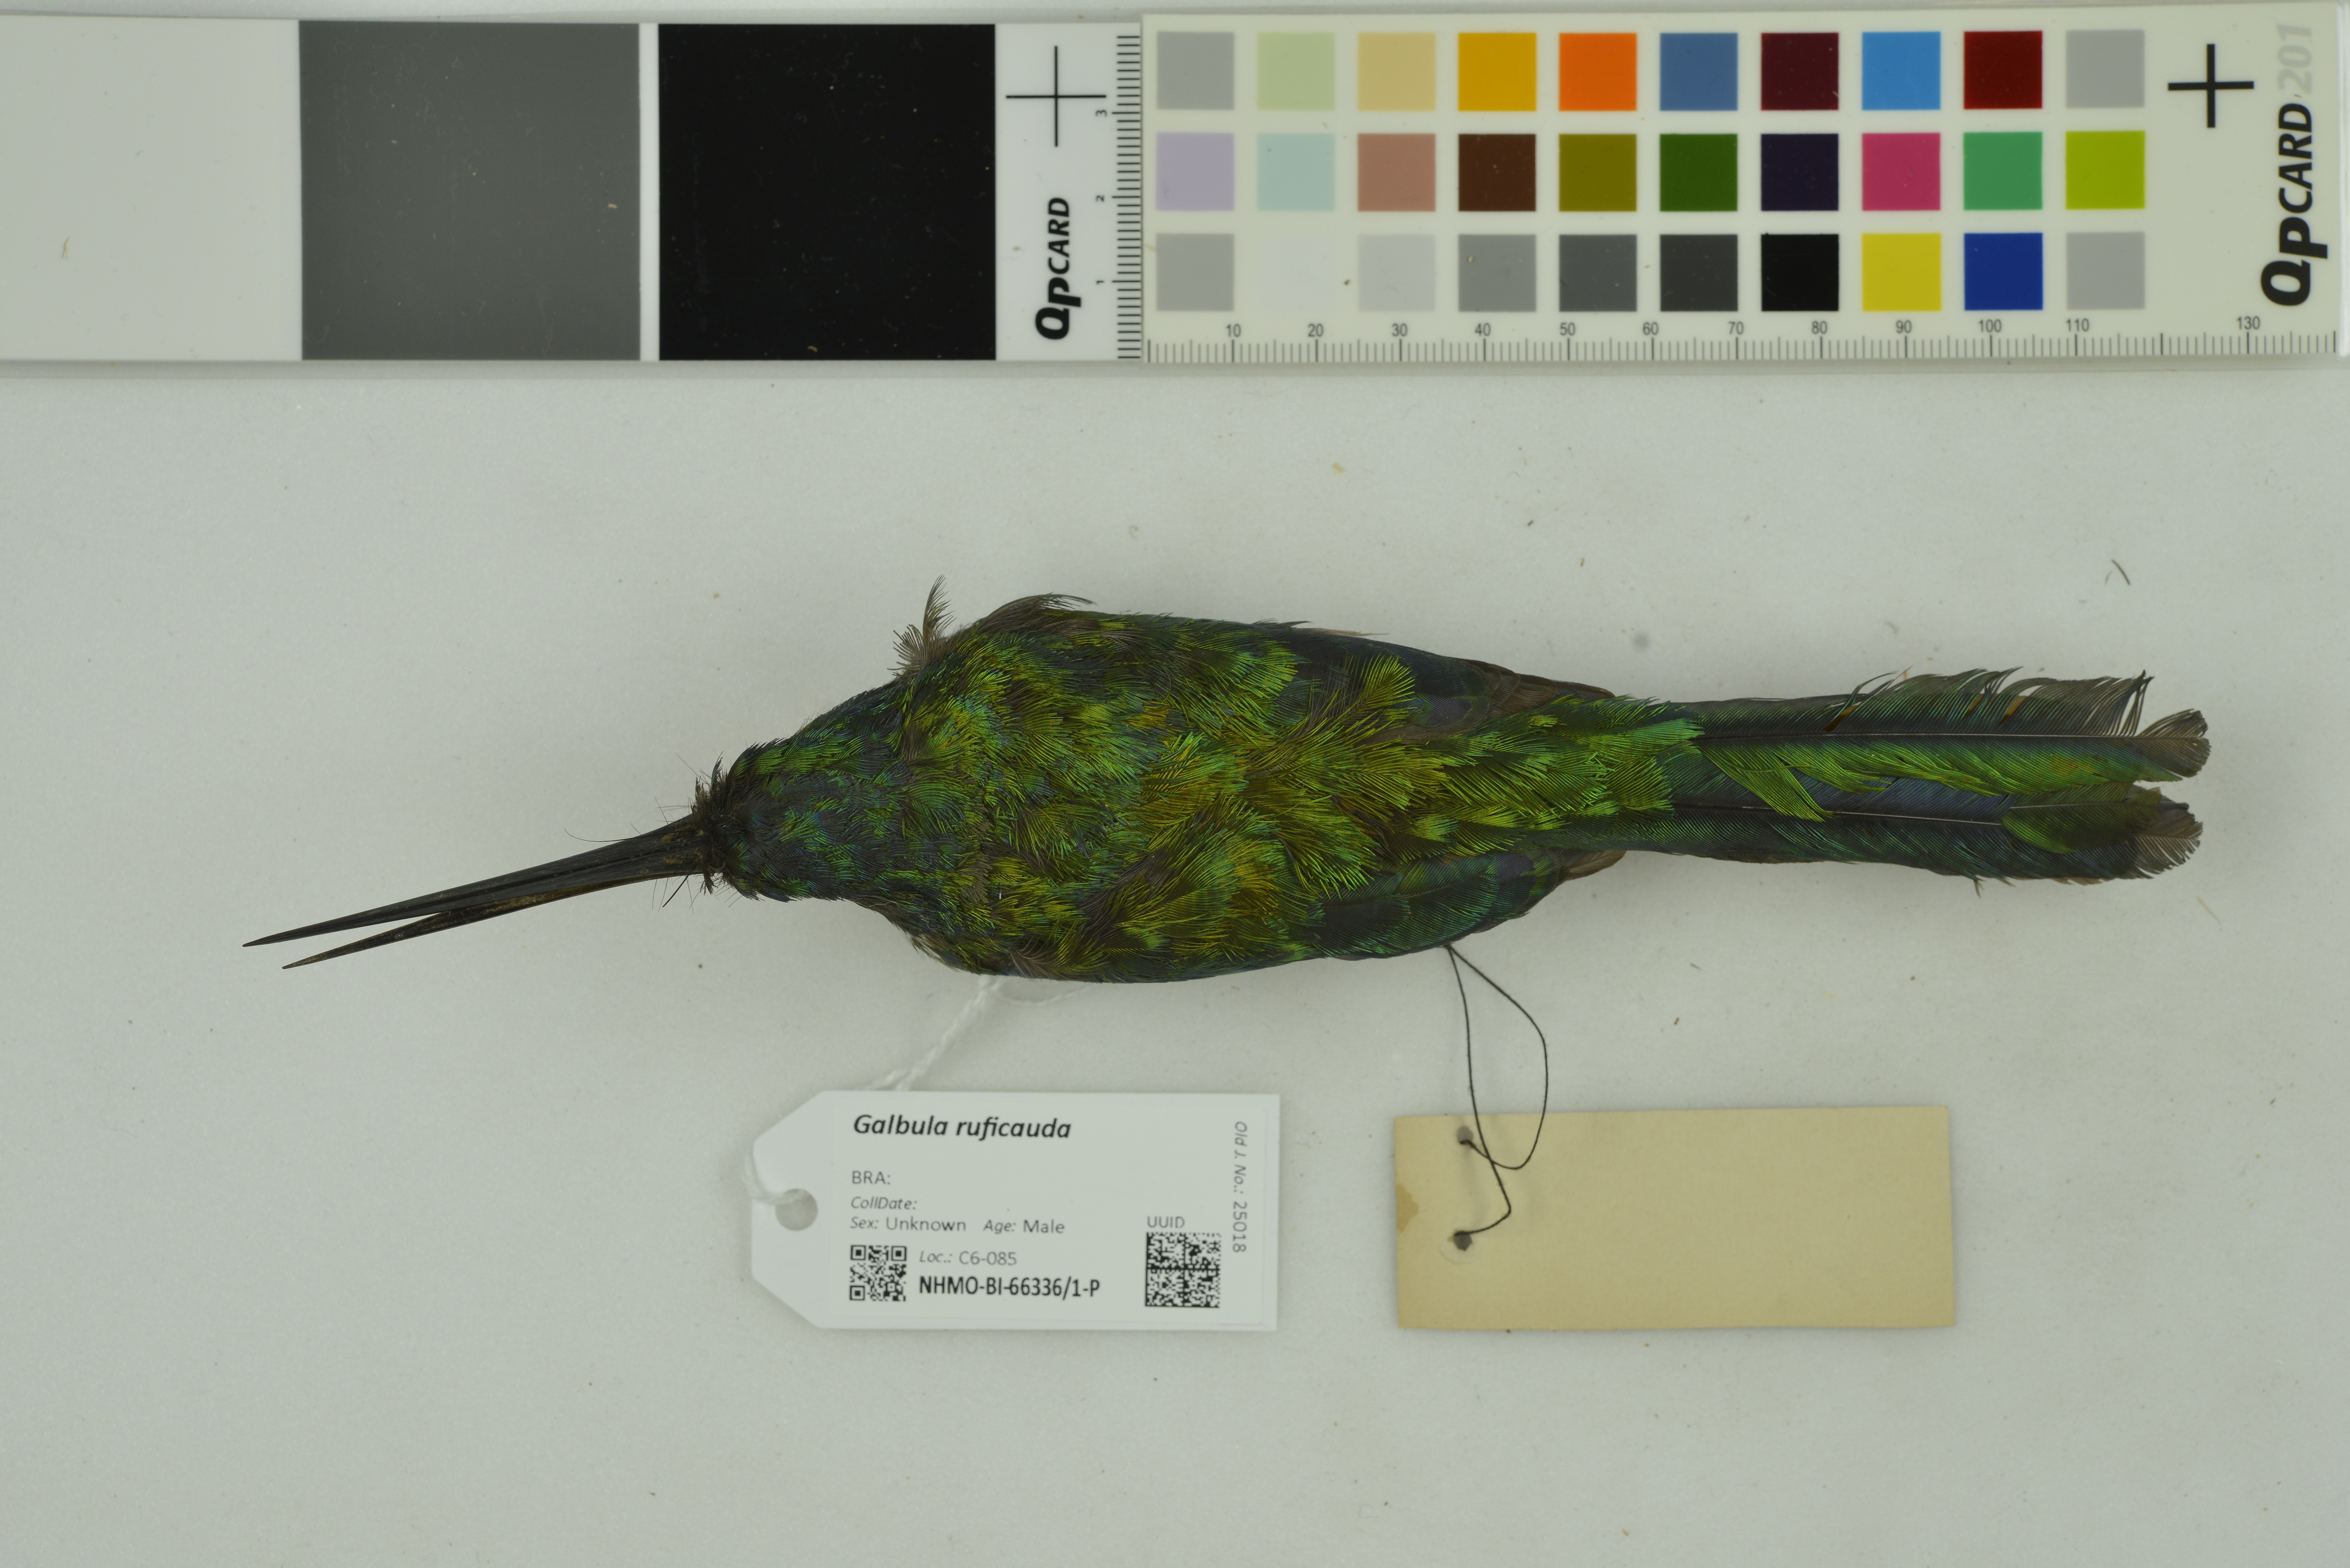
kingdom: Animalia
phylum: Chordata
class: Aves
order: Piciformes
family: Galbulidae
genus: Galbula
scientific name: Galbula ruficauda
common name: Rufous-tailed jacamar
